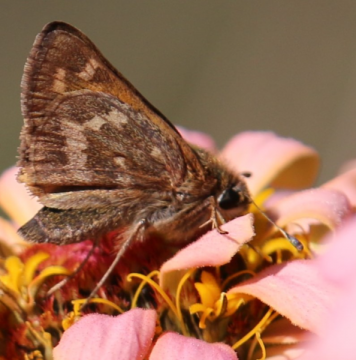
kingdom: Animalia
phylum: Arthropoda
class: Insecta
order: Lepidoptera
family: Hesperiidae
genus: Atalopedes
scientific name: Atalopedes campestris
